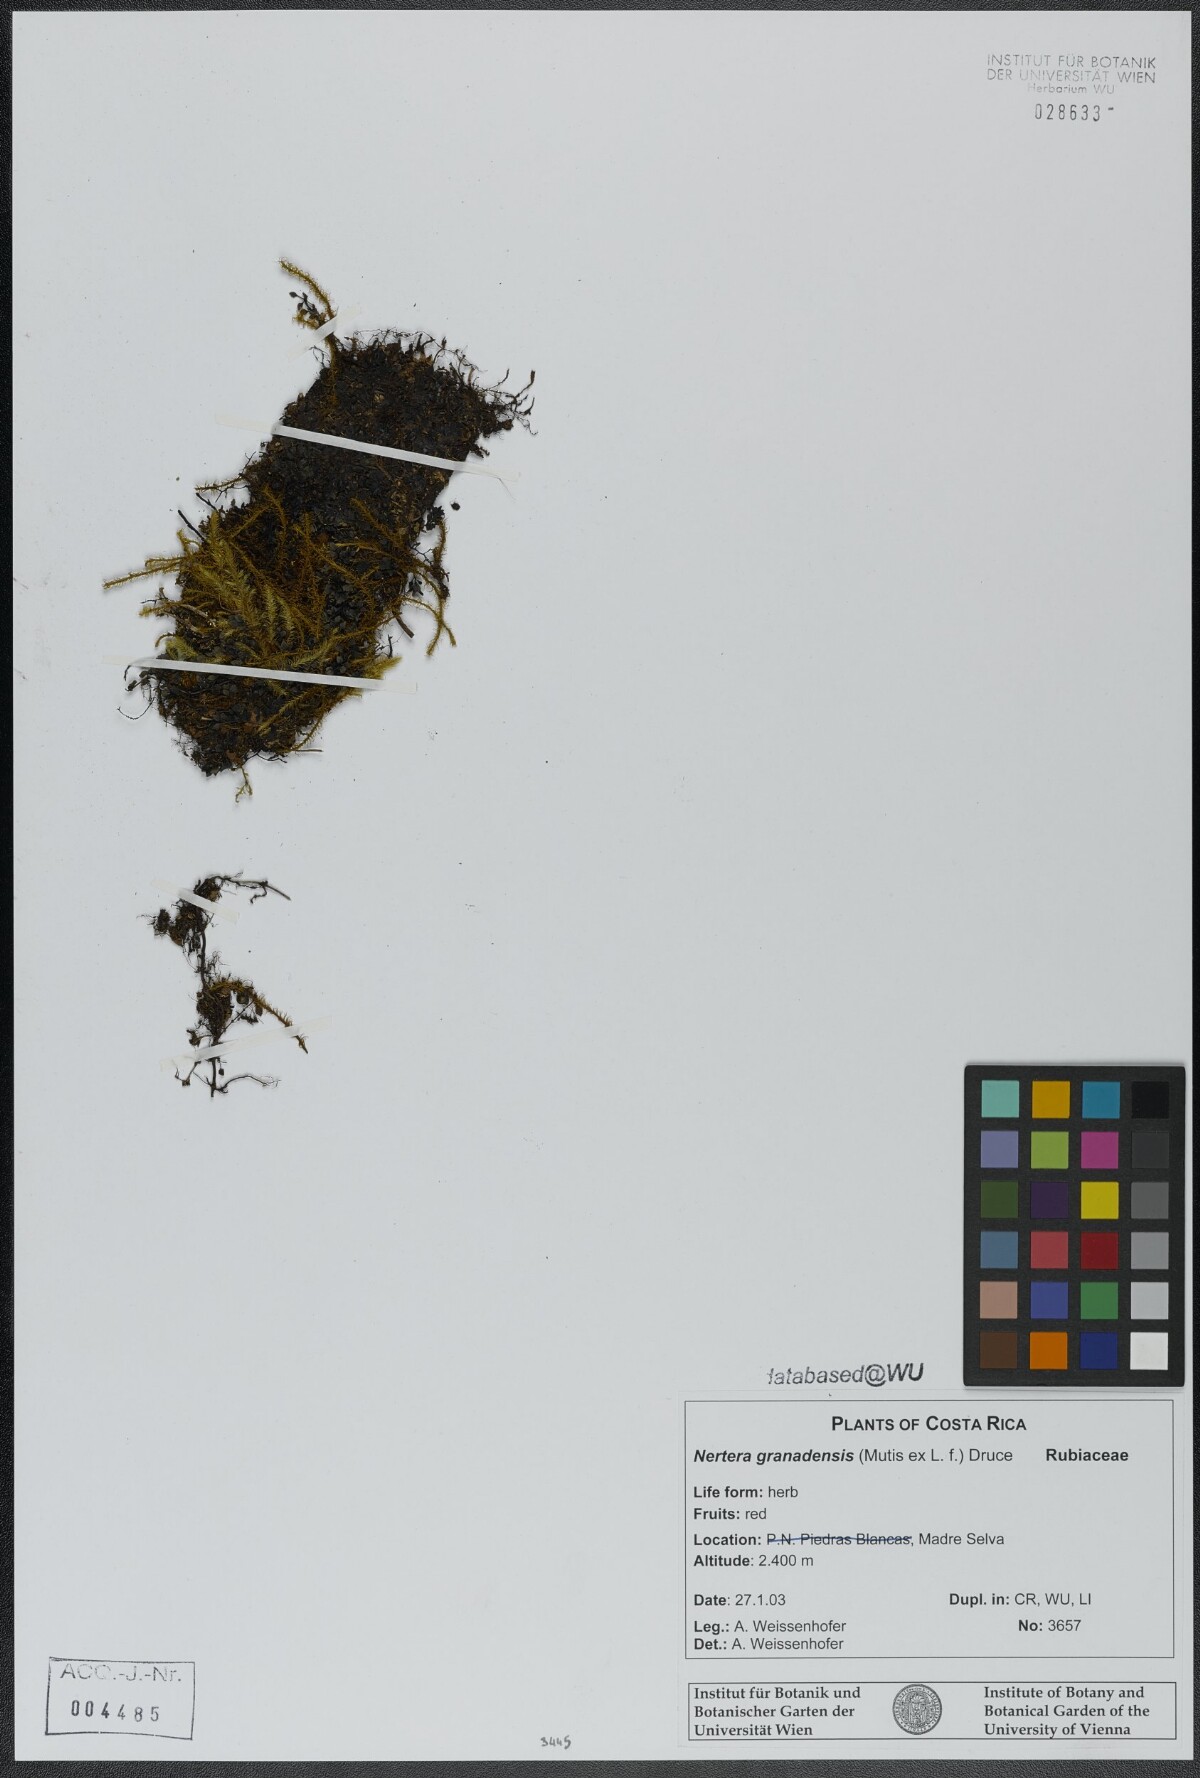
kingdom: Plantae
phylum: Tracheophyta
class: Magnoliopsida
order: Gentianales
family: Rubiaceae
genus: Nertera
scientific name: Nertera granadensis
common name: Beadplant
